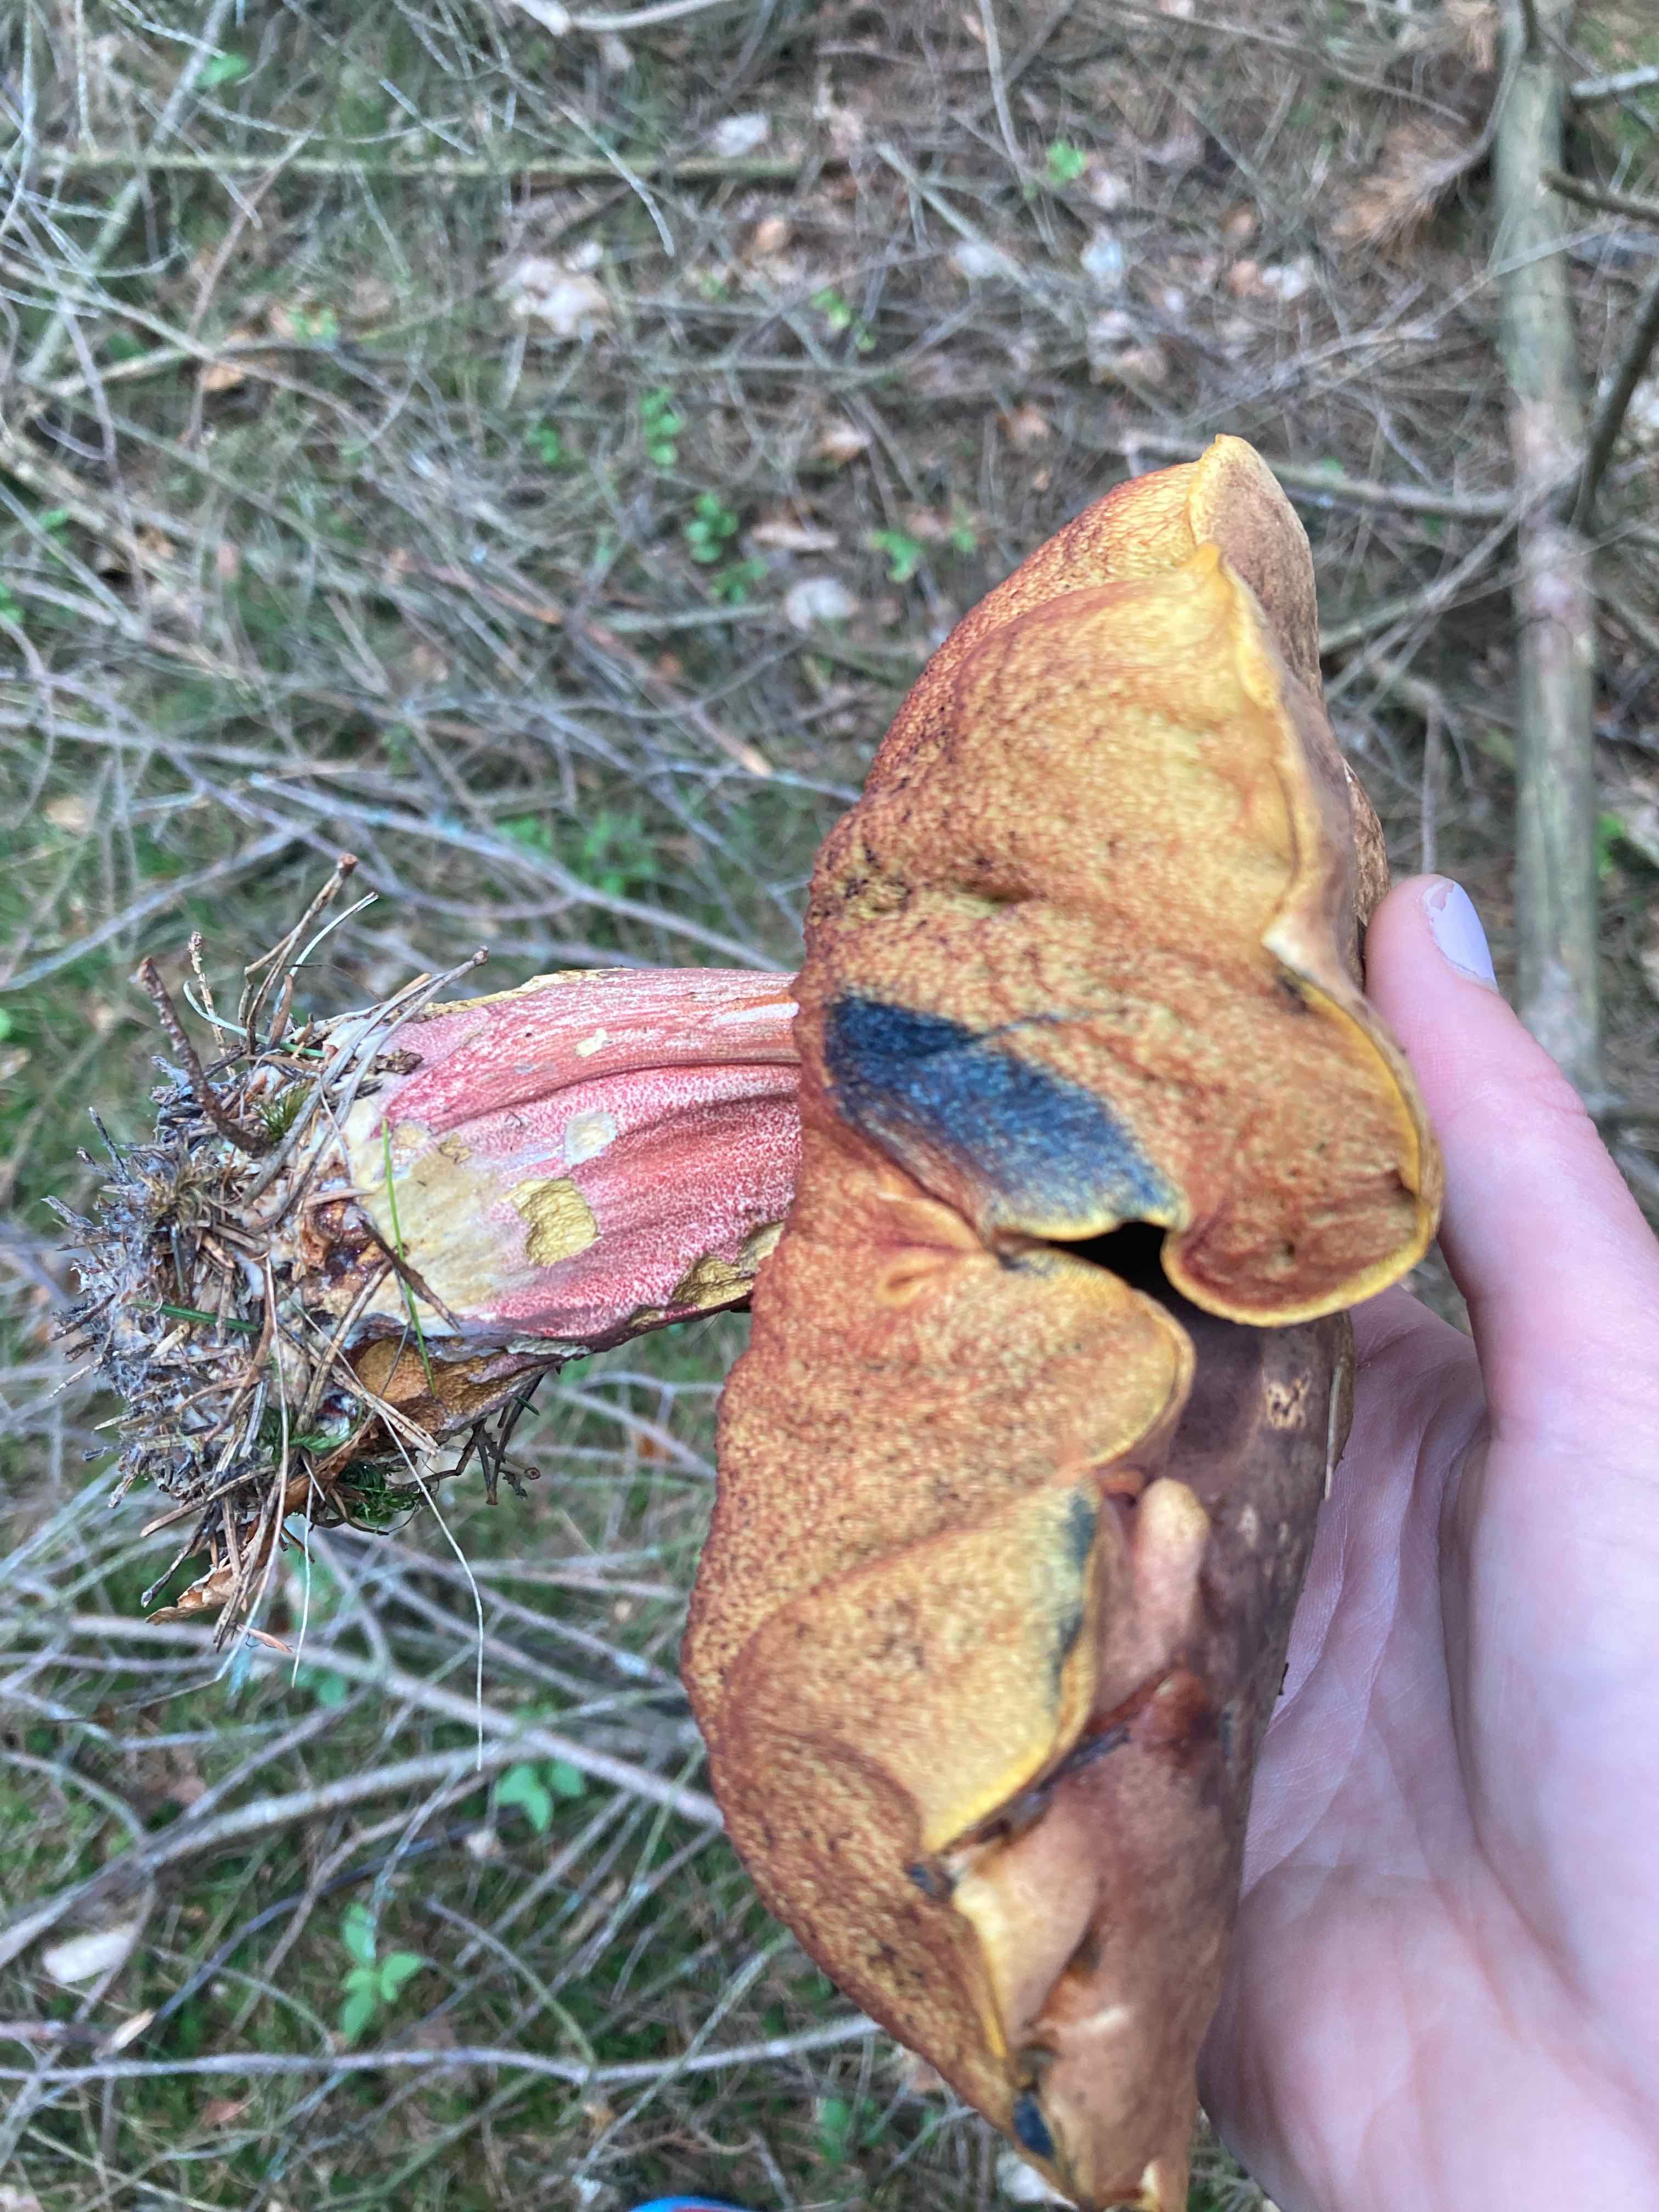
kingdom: Fungi
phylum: Basidiomycota
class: Agaricomycetes
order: Boletales
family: Boletaceae
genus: Neoboletus
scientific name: Neoboletus erythropus
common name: punktstokket indigorørhat
